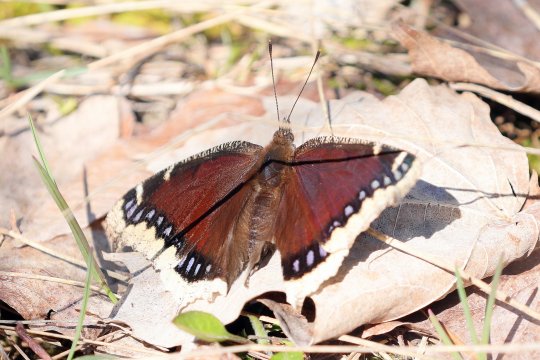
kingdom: Animalia
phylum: Arthropoda
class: Insecta
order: Lepidoptera
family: Nymphalidae
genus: Nymphalis
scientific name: Nymphalis antiopa
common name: Mourning Cloak
